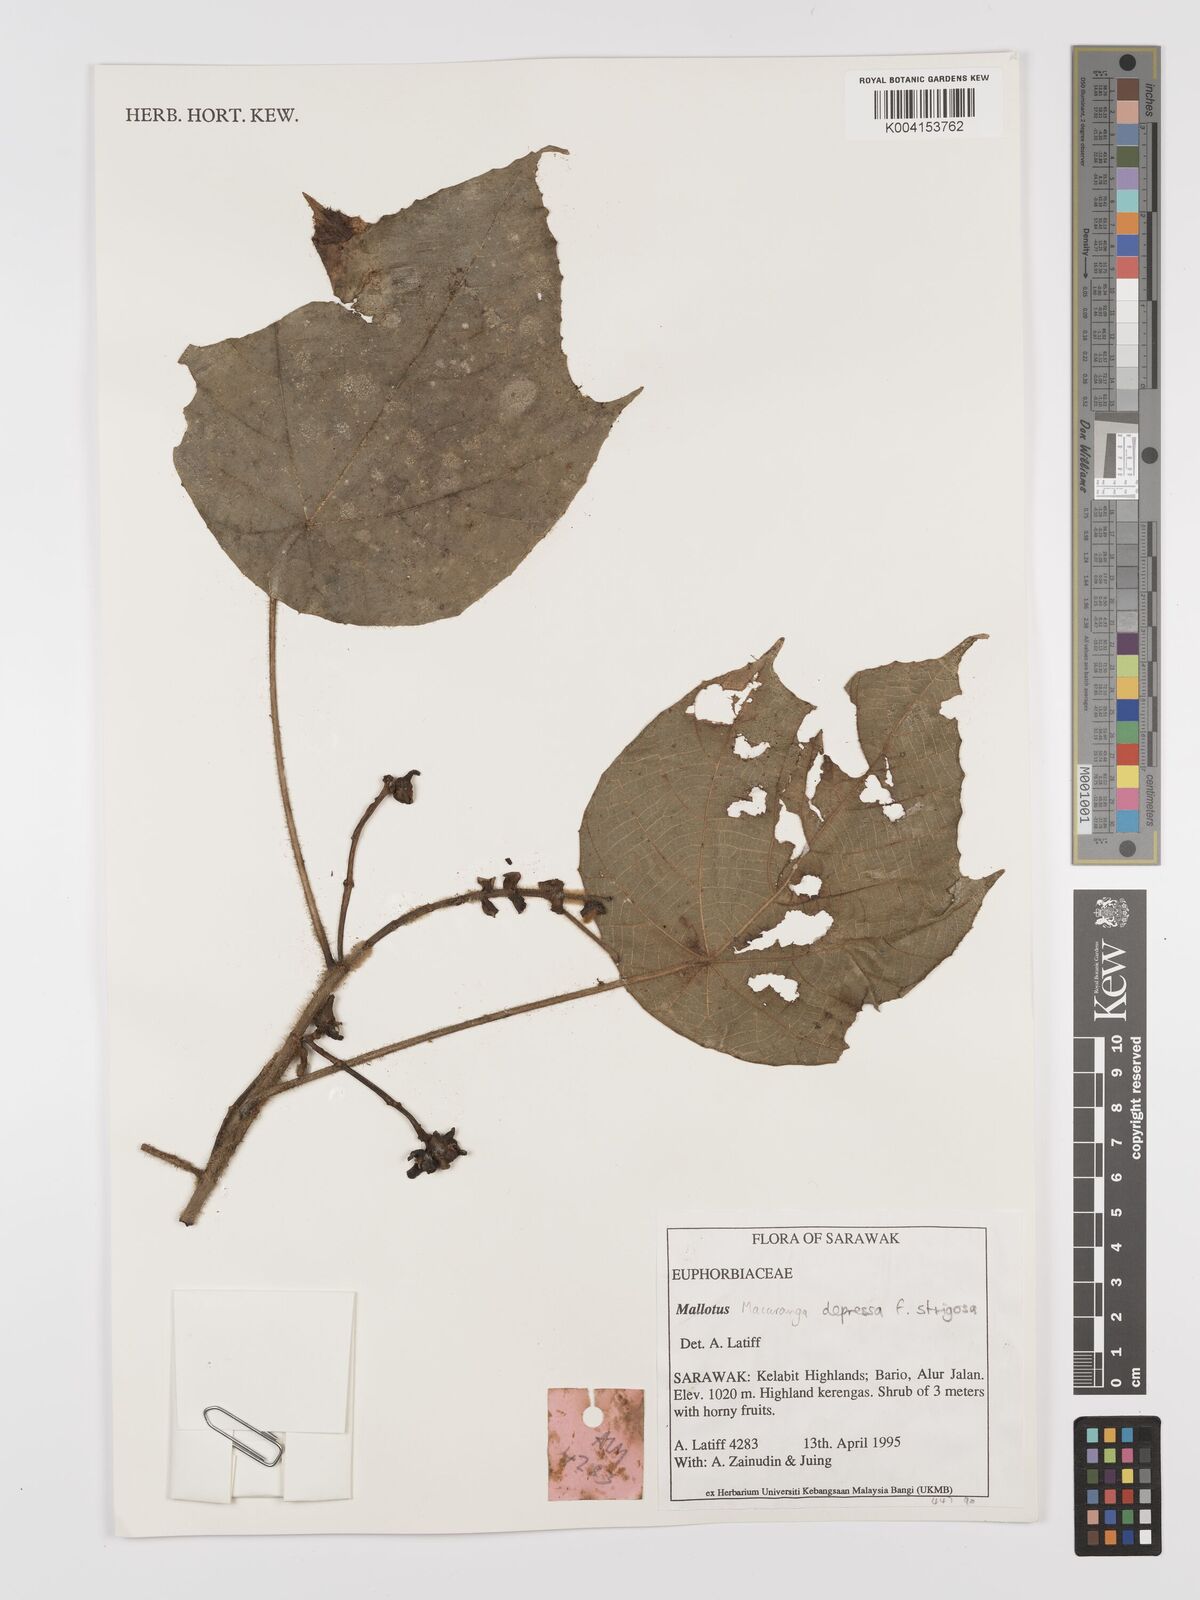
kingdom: Plantae
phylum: Tracheophyta
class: Magnoliopsida
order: Malpighiales
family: Euphorbiaceae
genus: Macaranga
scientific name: Macaranga depressa
